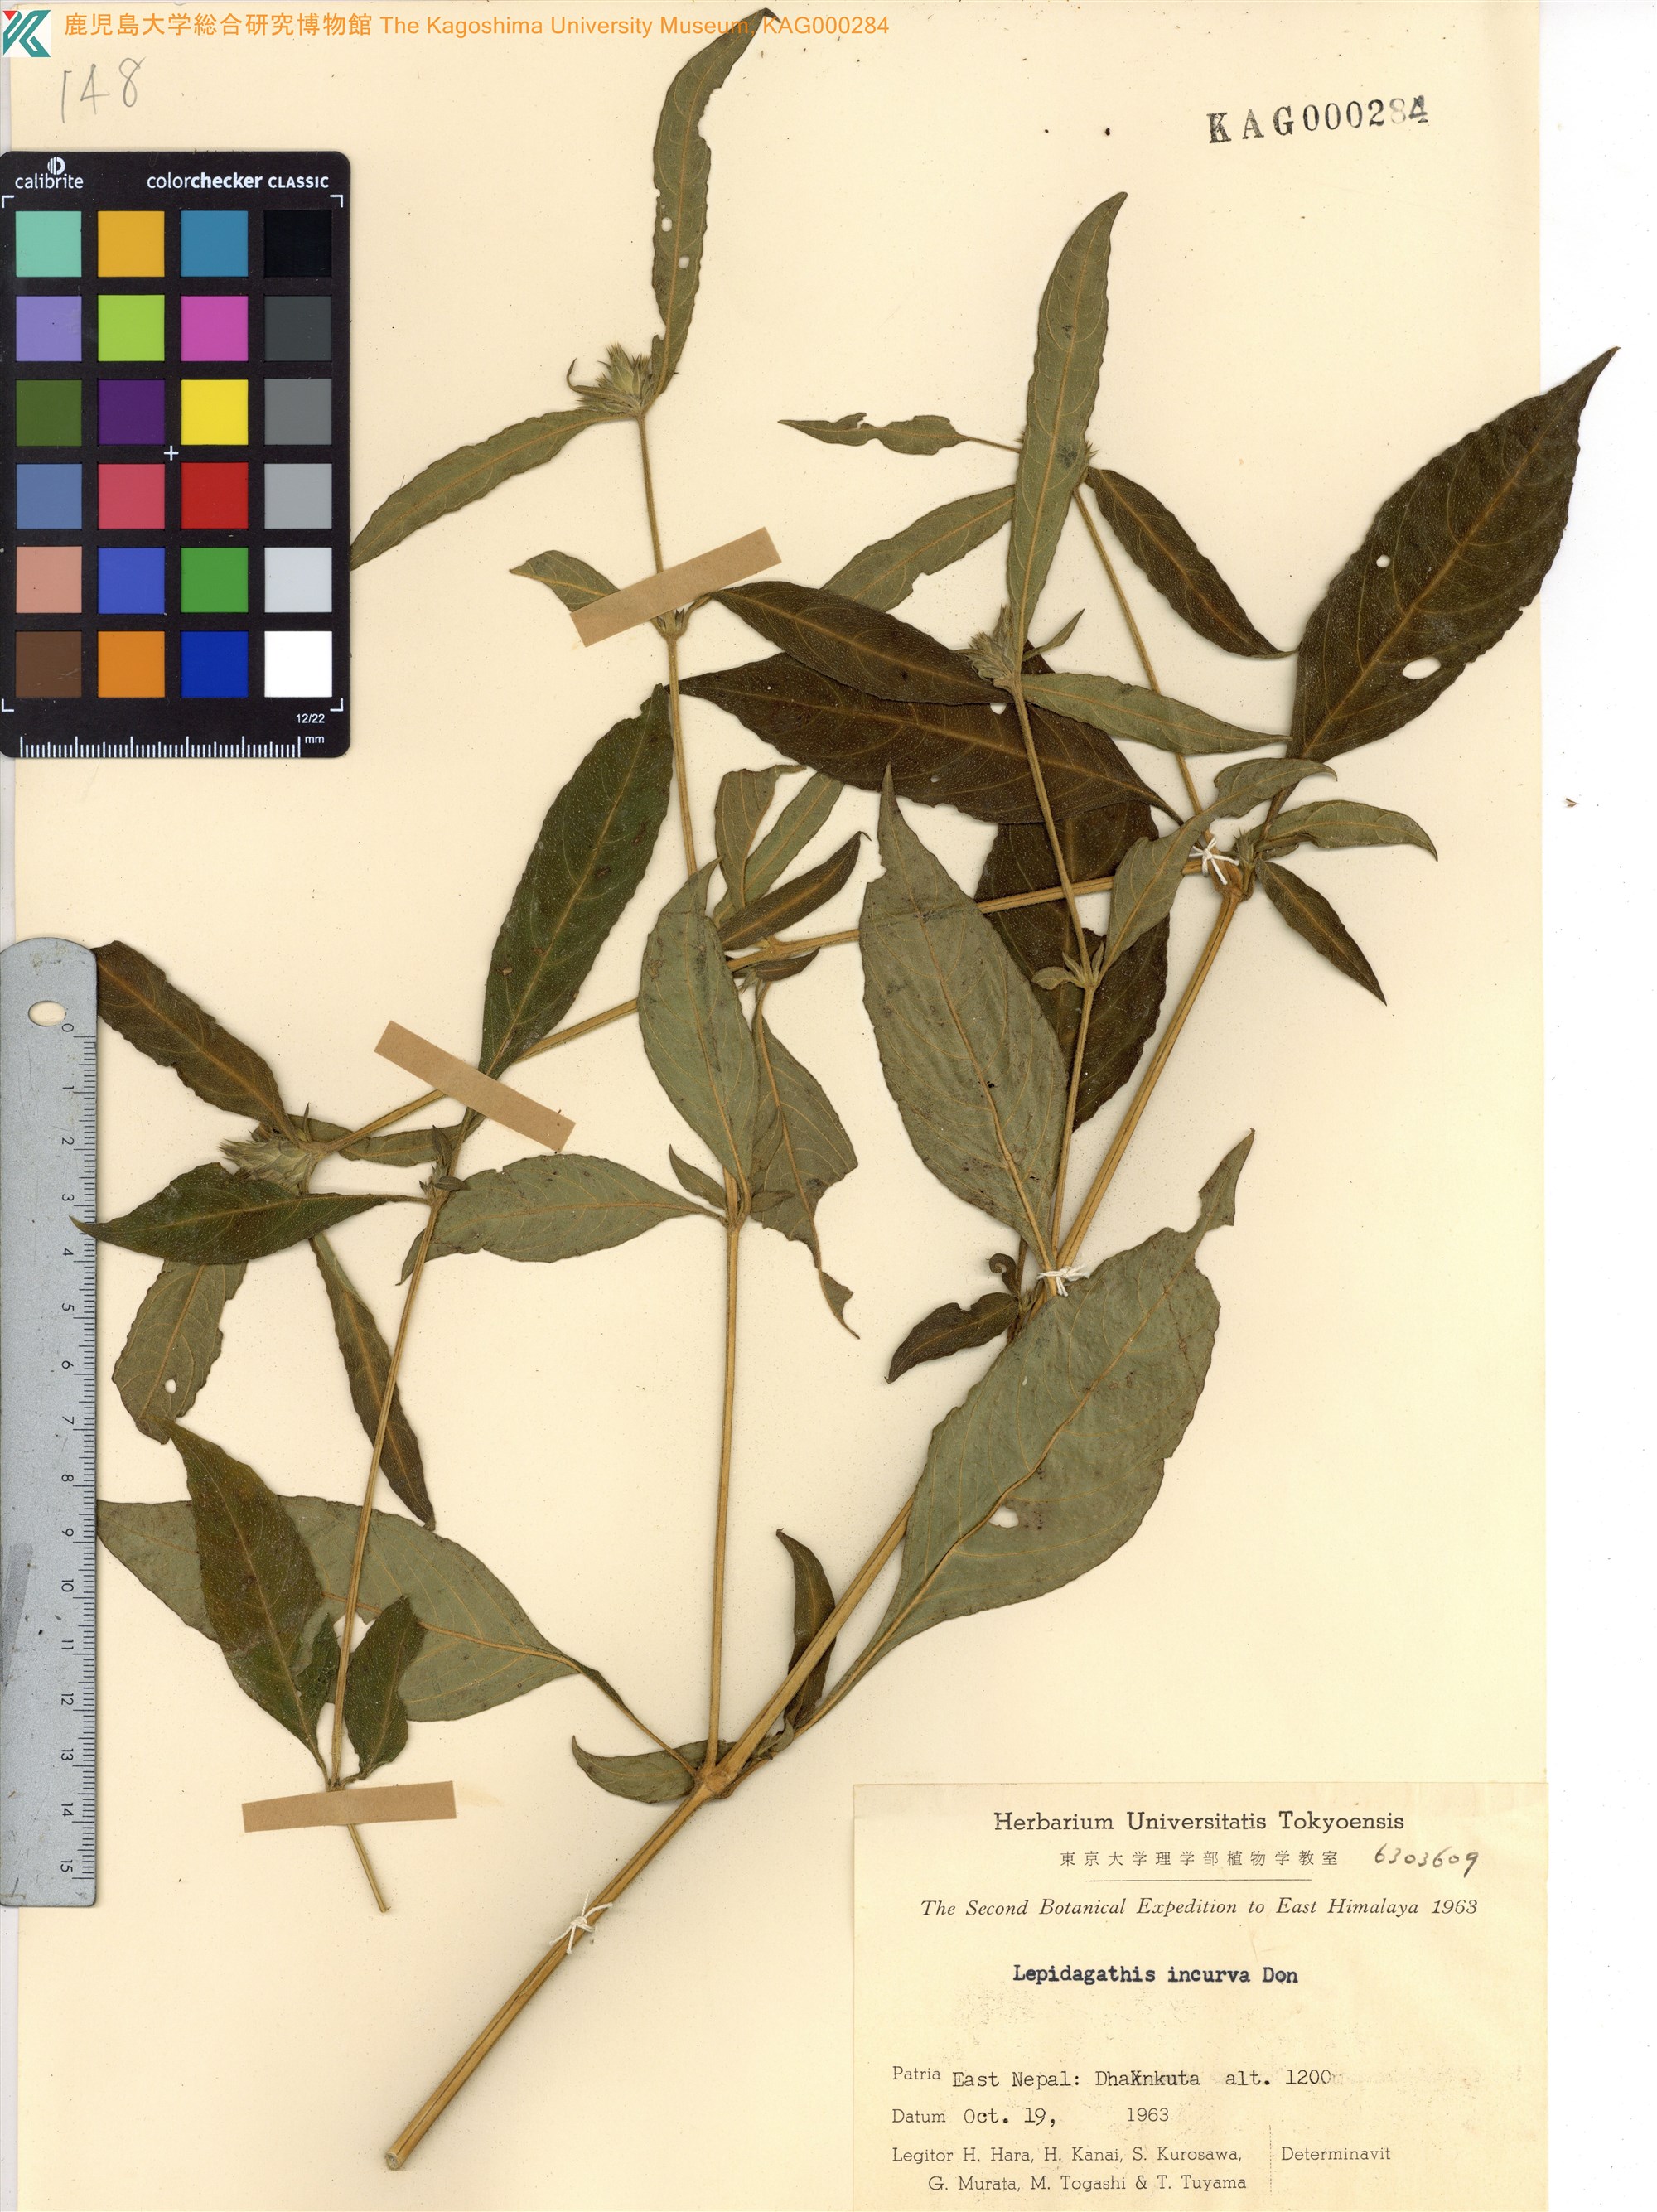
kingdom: Plantae
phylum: Tracheophyta
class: Magnoliopsida
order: Lamiales
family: Acanthaceae
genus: Lepidagathis
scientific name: Lepidagathis incurva
